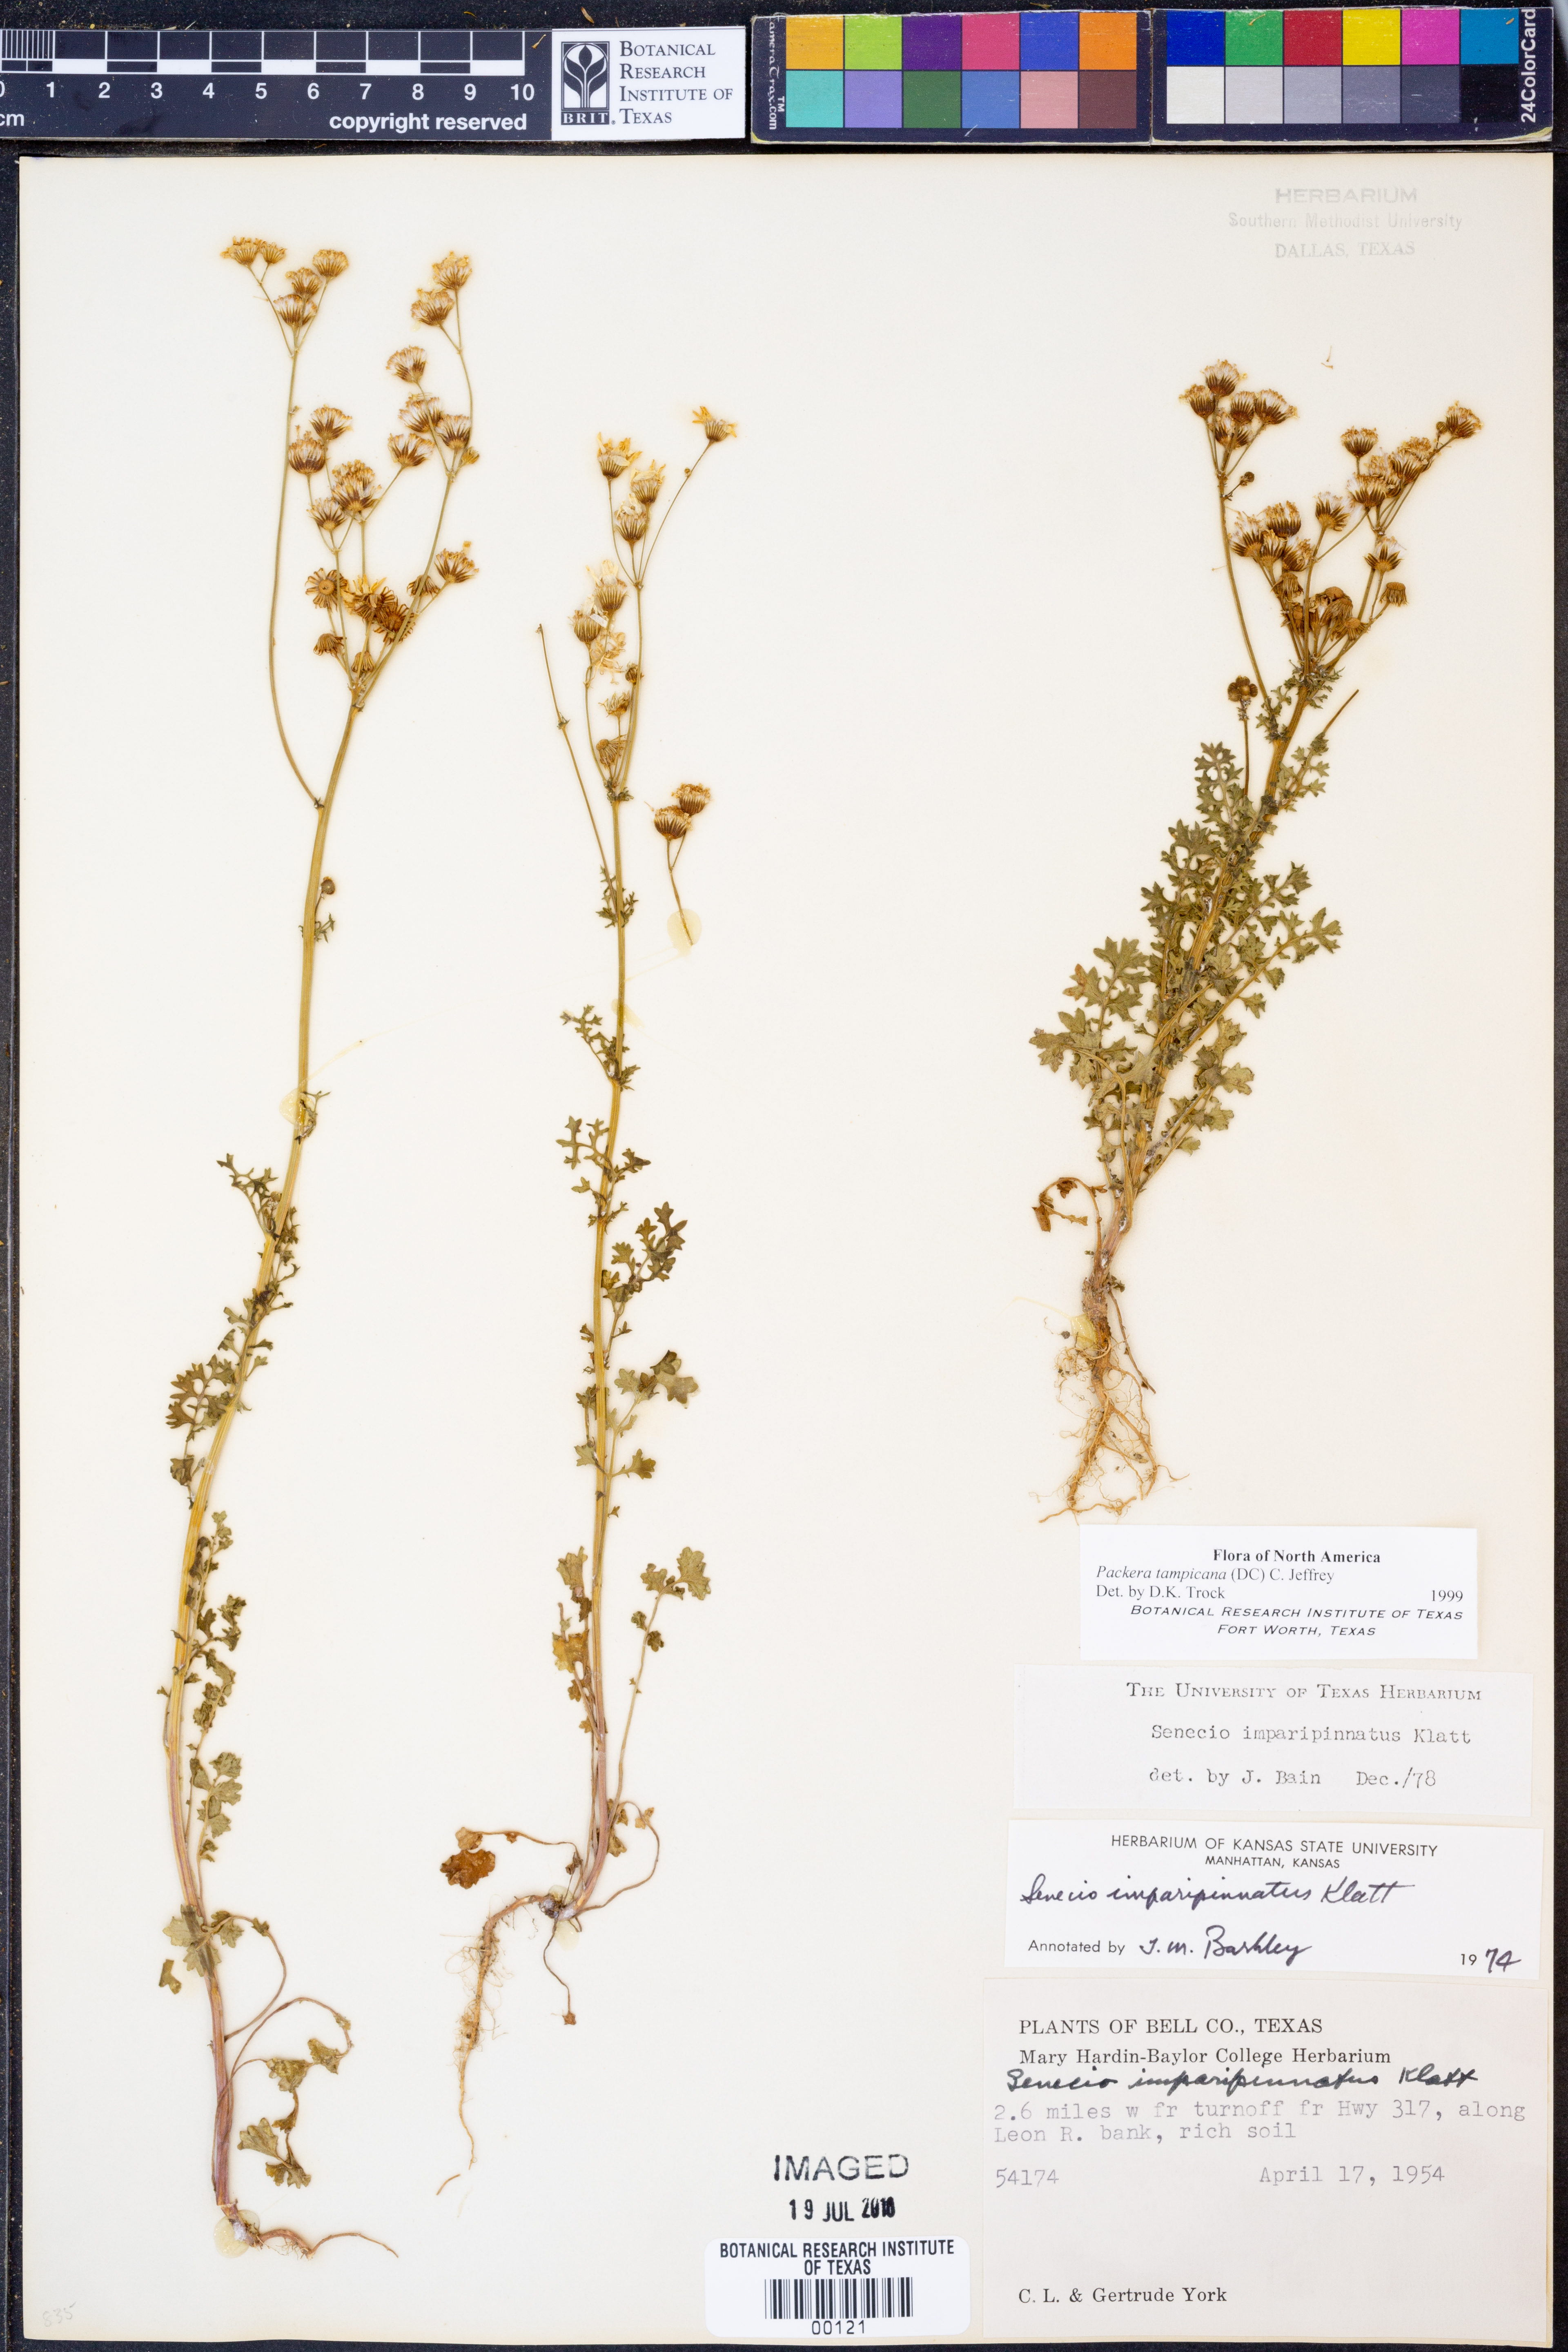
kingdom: Plantae
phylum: Tracheophyta
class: Magnoliopsida
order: Asterales
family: Asteraceae
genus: Packera
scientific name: Packera tampicana
